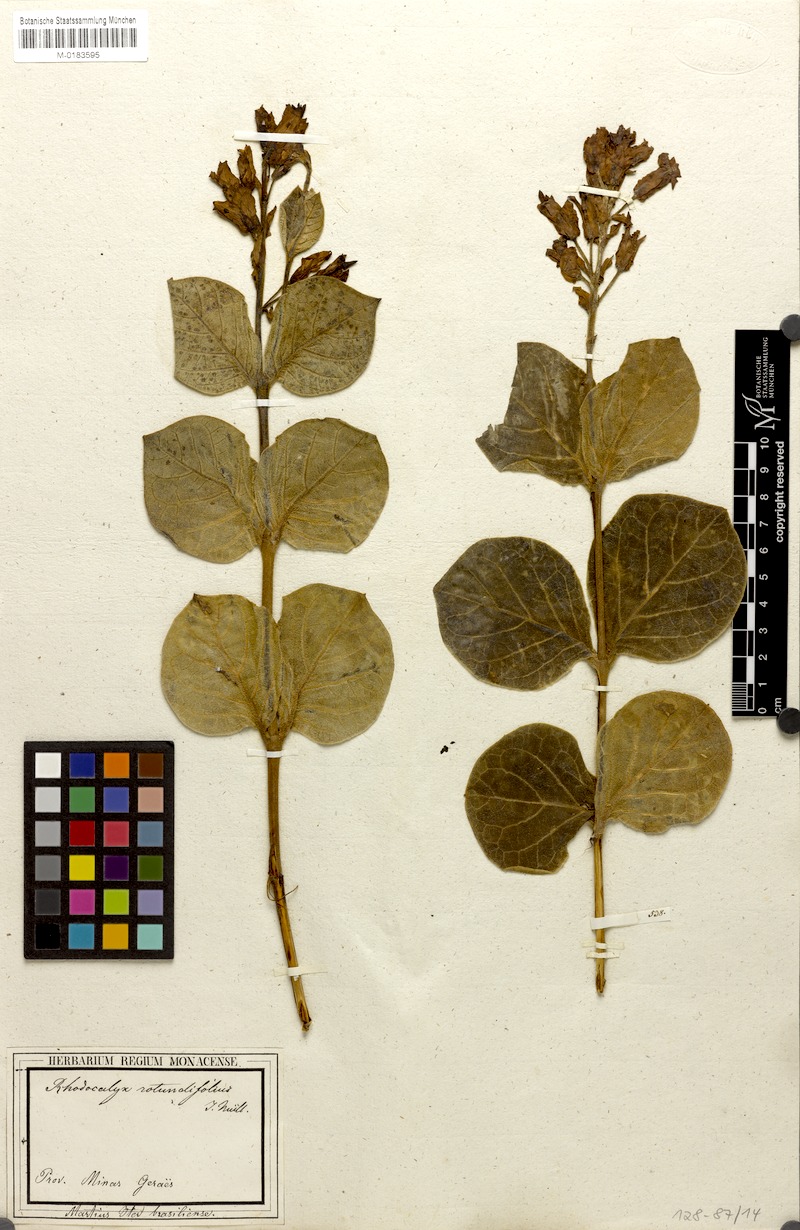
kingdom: Plantae
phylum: Tracheophyta
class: Magnoliopsida
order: Gentianales
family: Apocynaceae
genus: Prestonia
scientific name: Prestonia erecta
